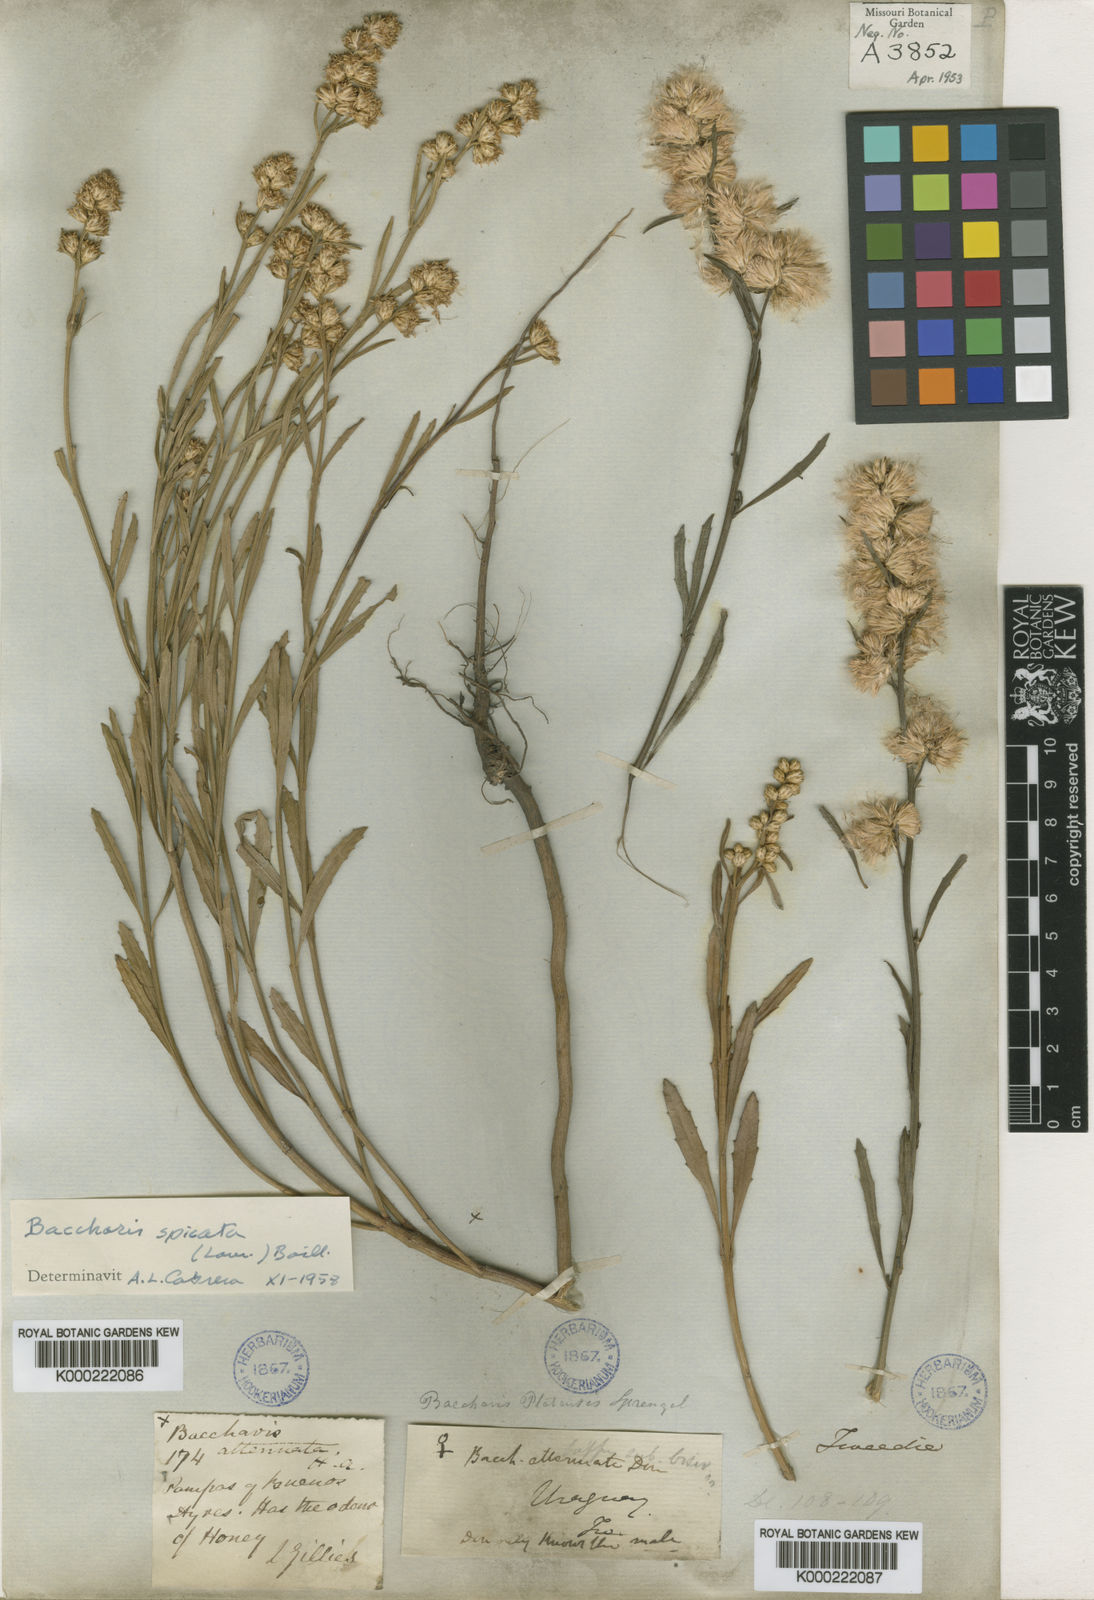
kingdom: Plantae
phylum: Tracheophyta
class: Magnoliopsida
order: Asterales
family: Asteraceae
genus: Baccharis
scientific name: Baccharis spicata
